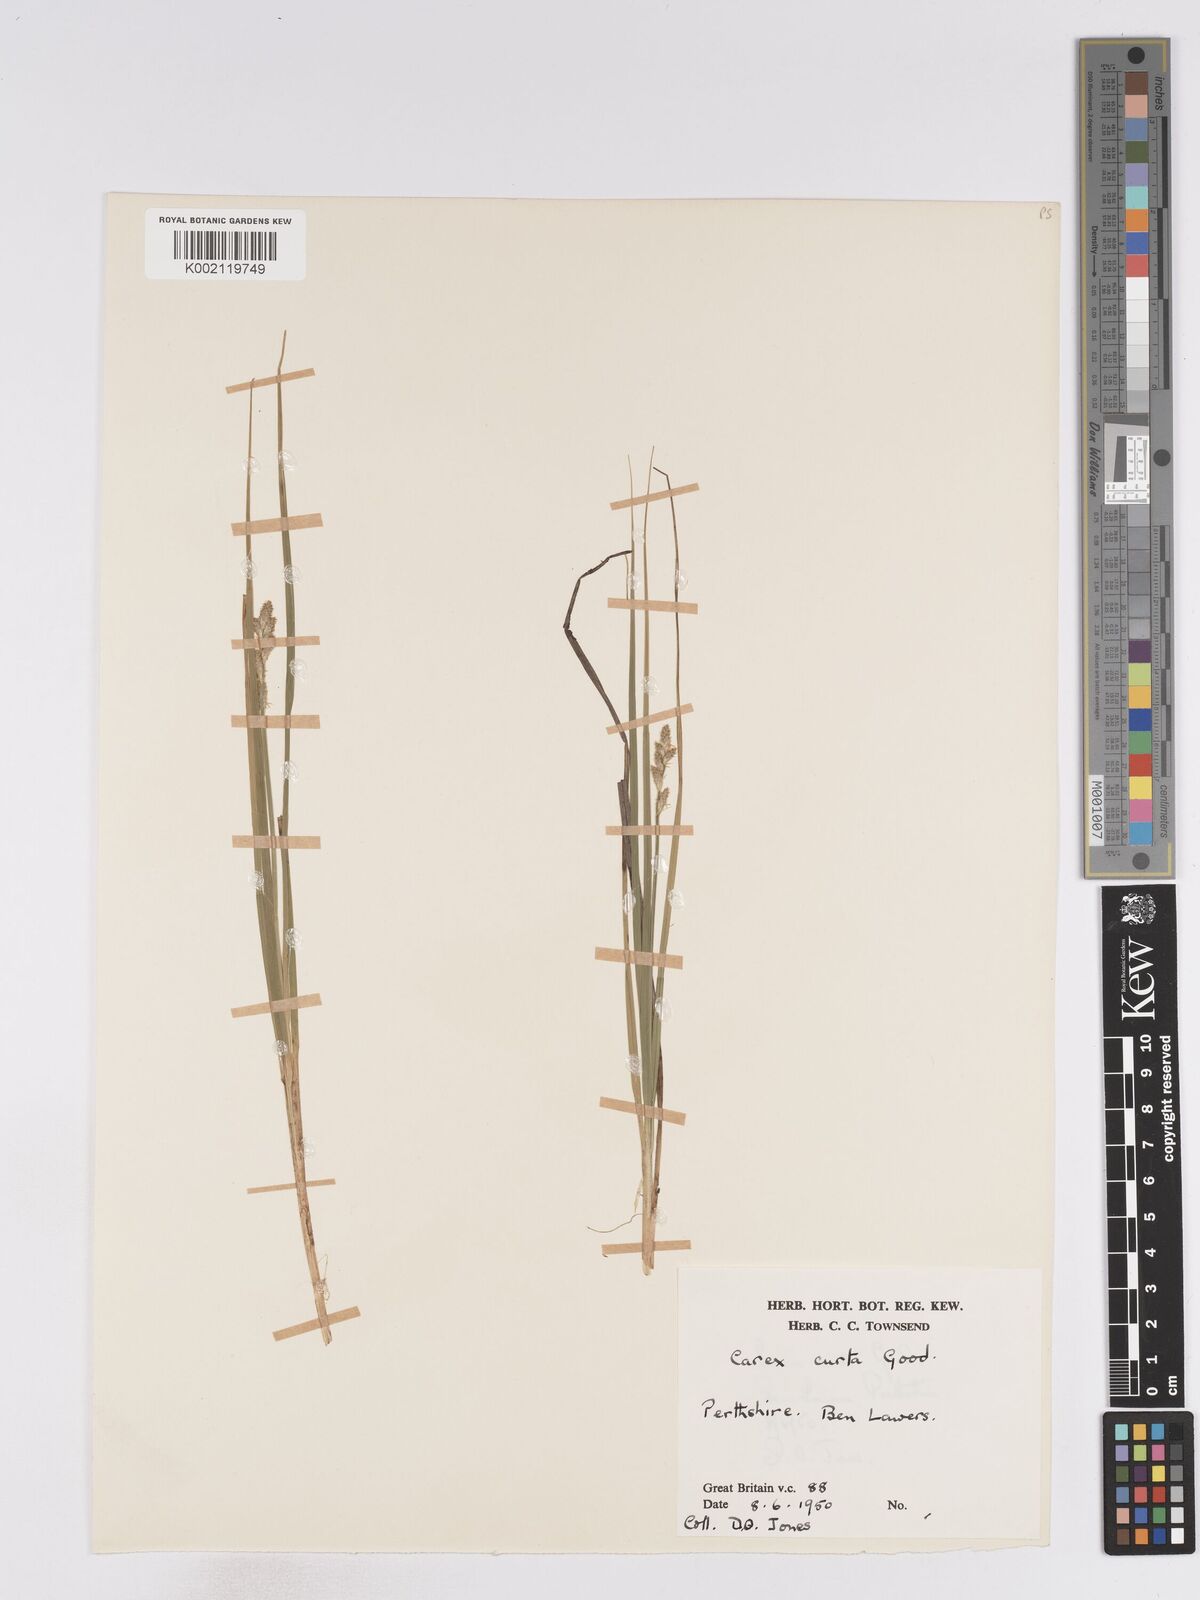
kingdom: Plantae
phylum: Tracheophyta
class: Liliopsida
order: Poales
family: Cyperaceae
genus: Carex
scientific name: Carex curta
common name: White sedge
